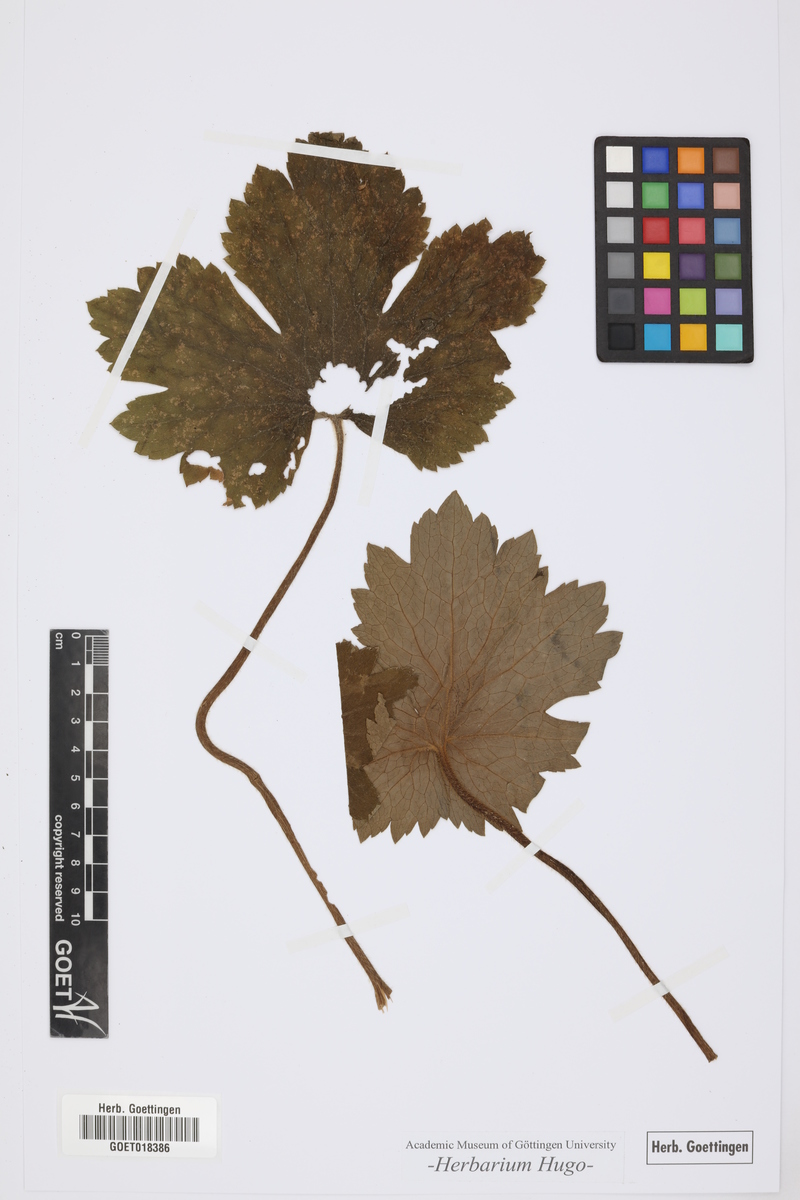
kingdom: Plantae
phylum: Tracheophyta
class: Magnoliopsida
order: Ranunculales
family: Ranunculaceae
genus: Ranunculus
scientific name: Ranunculus
